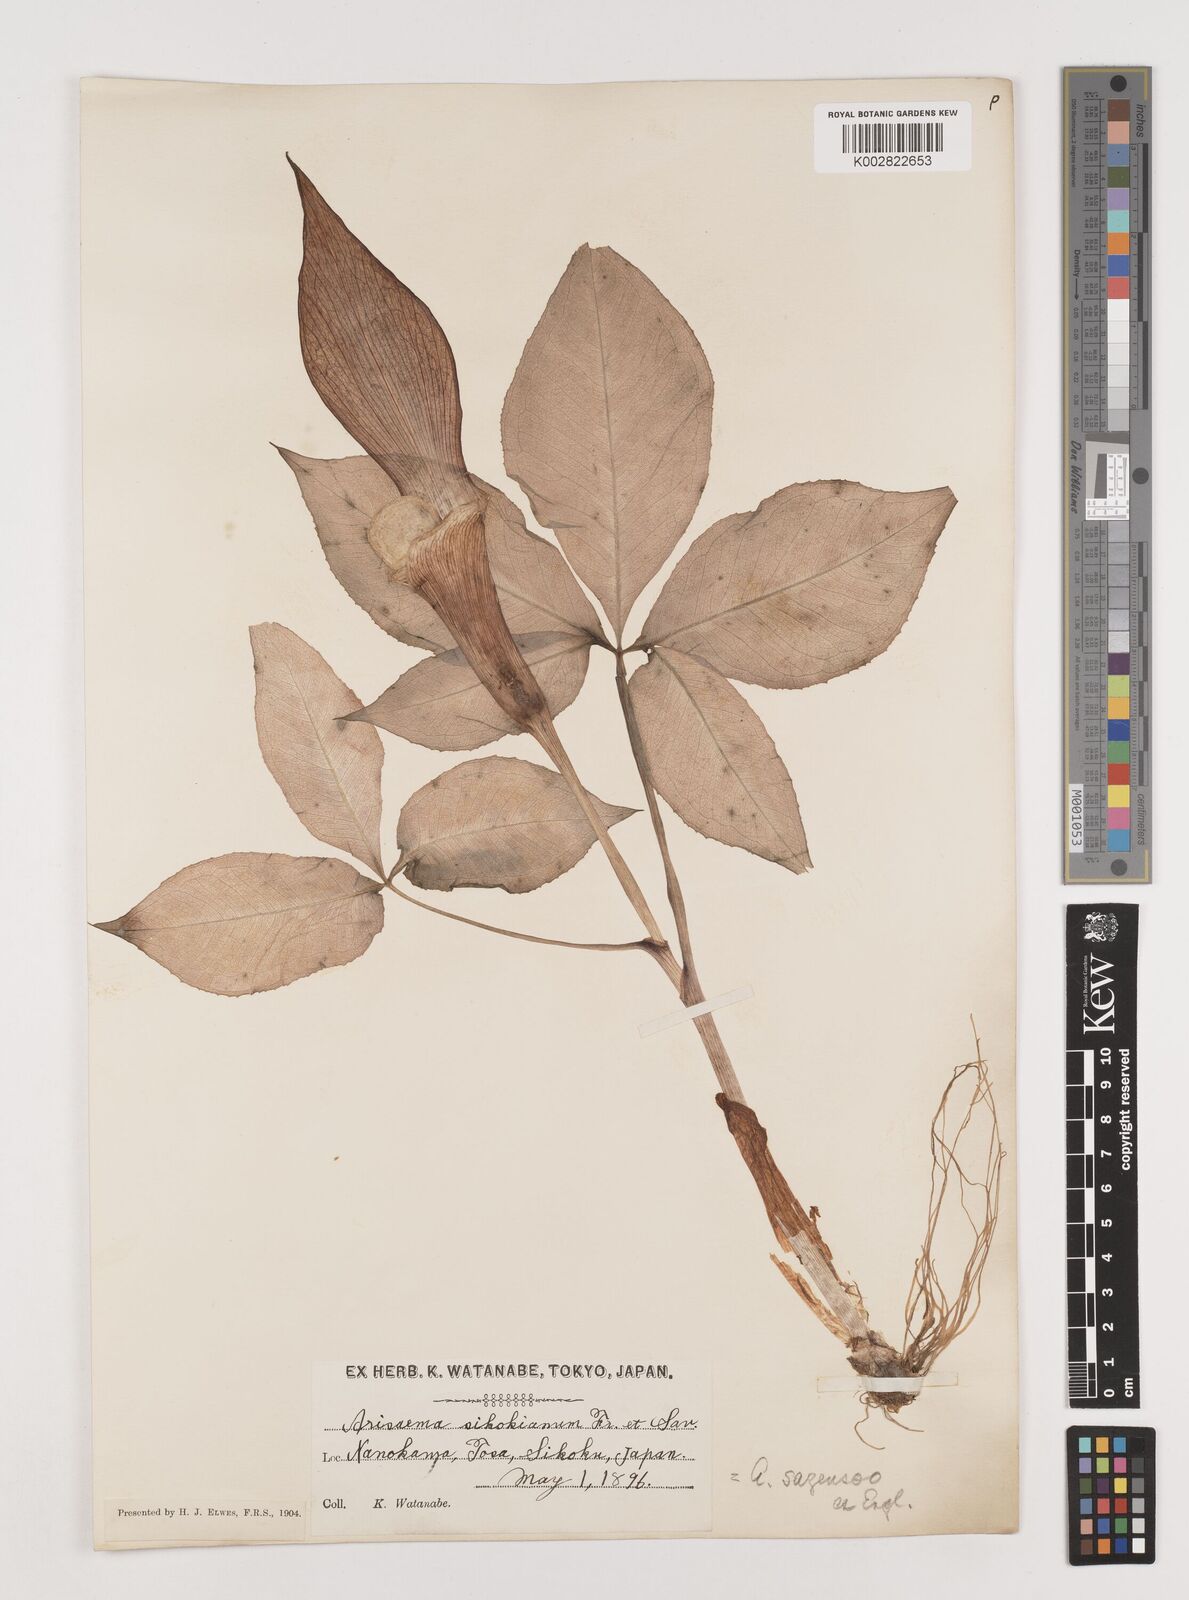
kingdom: Plantae
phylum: Tracheophyta
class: Liliopsida
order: Alismatales
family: Araceae
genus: Arisaema
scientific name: Arisaema sikokianum
